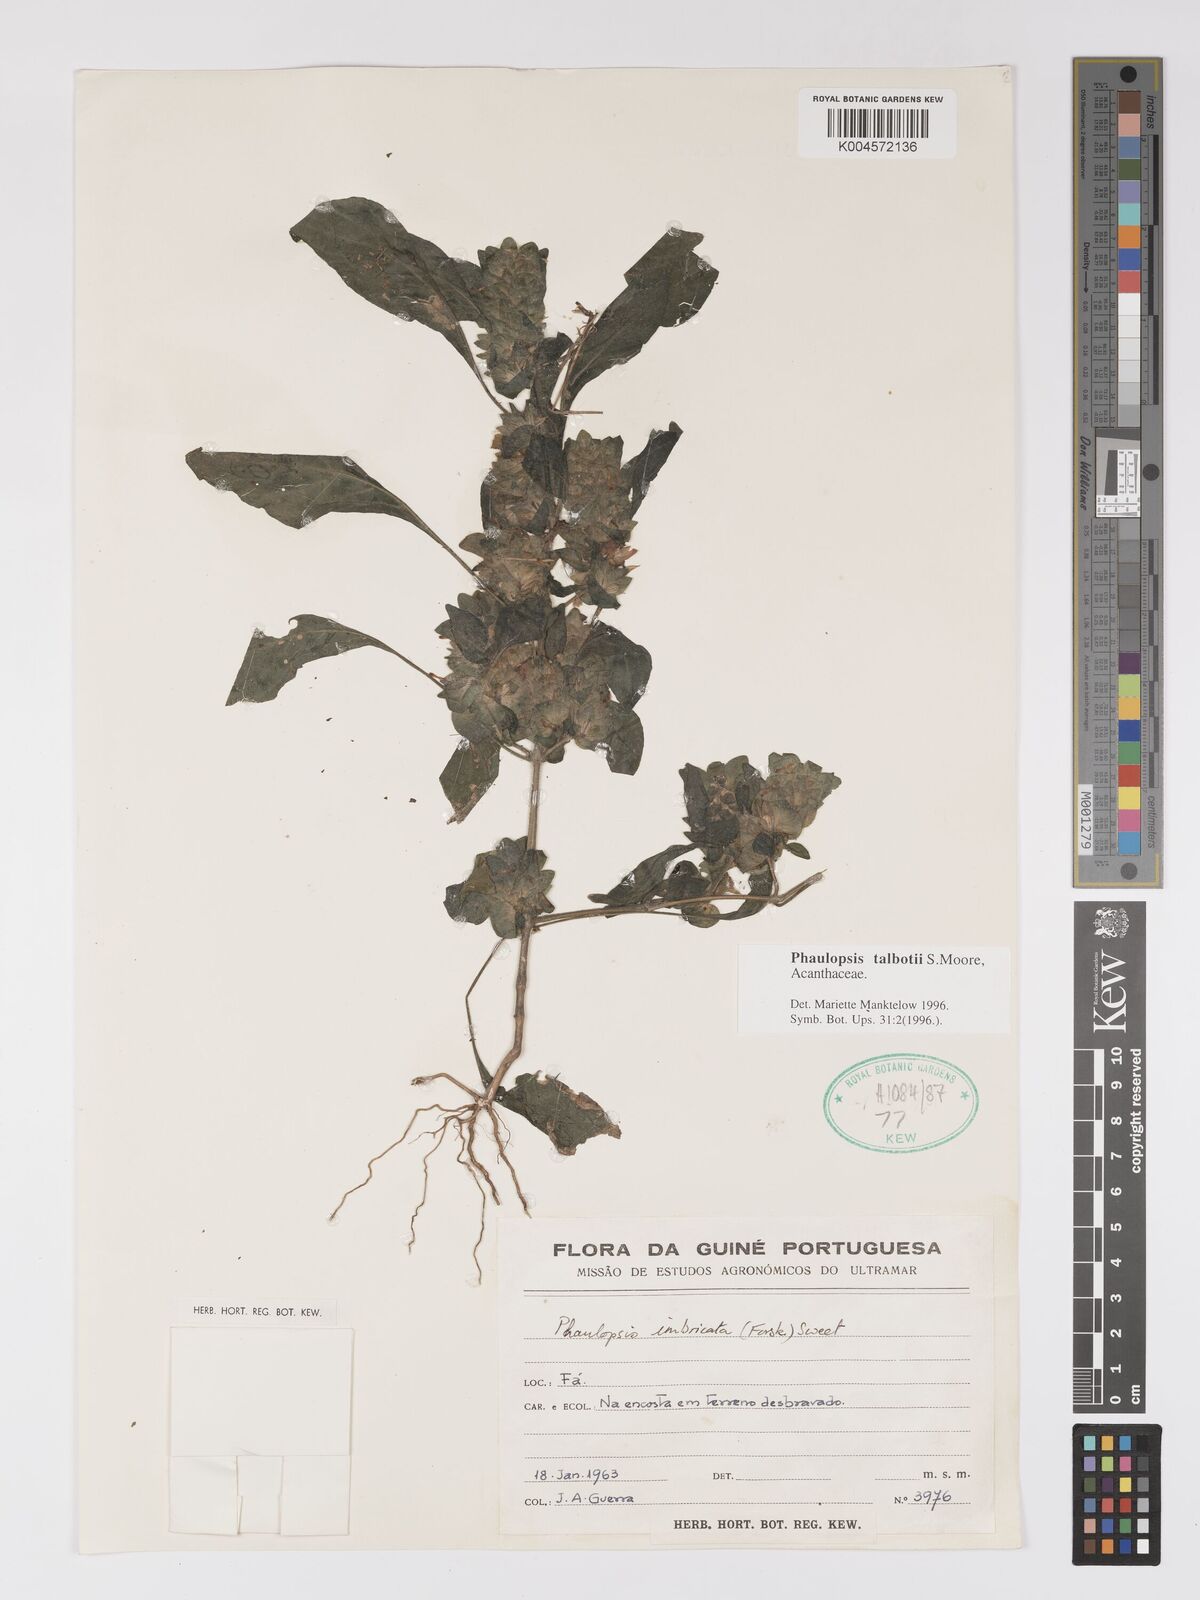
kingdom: Plantae
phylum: Tracheophyta
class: Magnoliopsida
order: Lamiales
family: Acanthaceae
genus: Phaulopsis
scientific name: Phaulopsis talbotii
